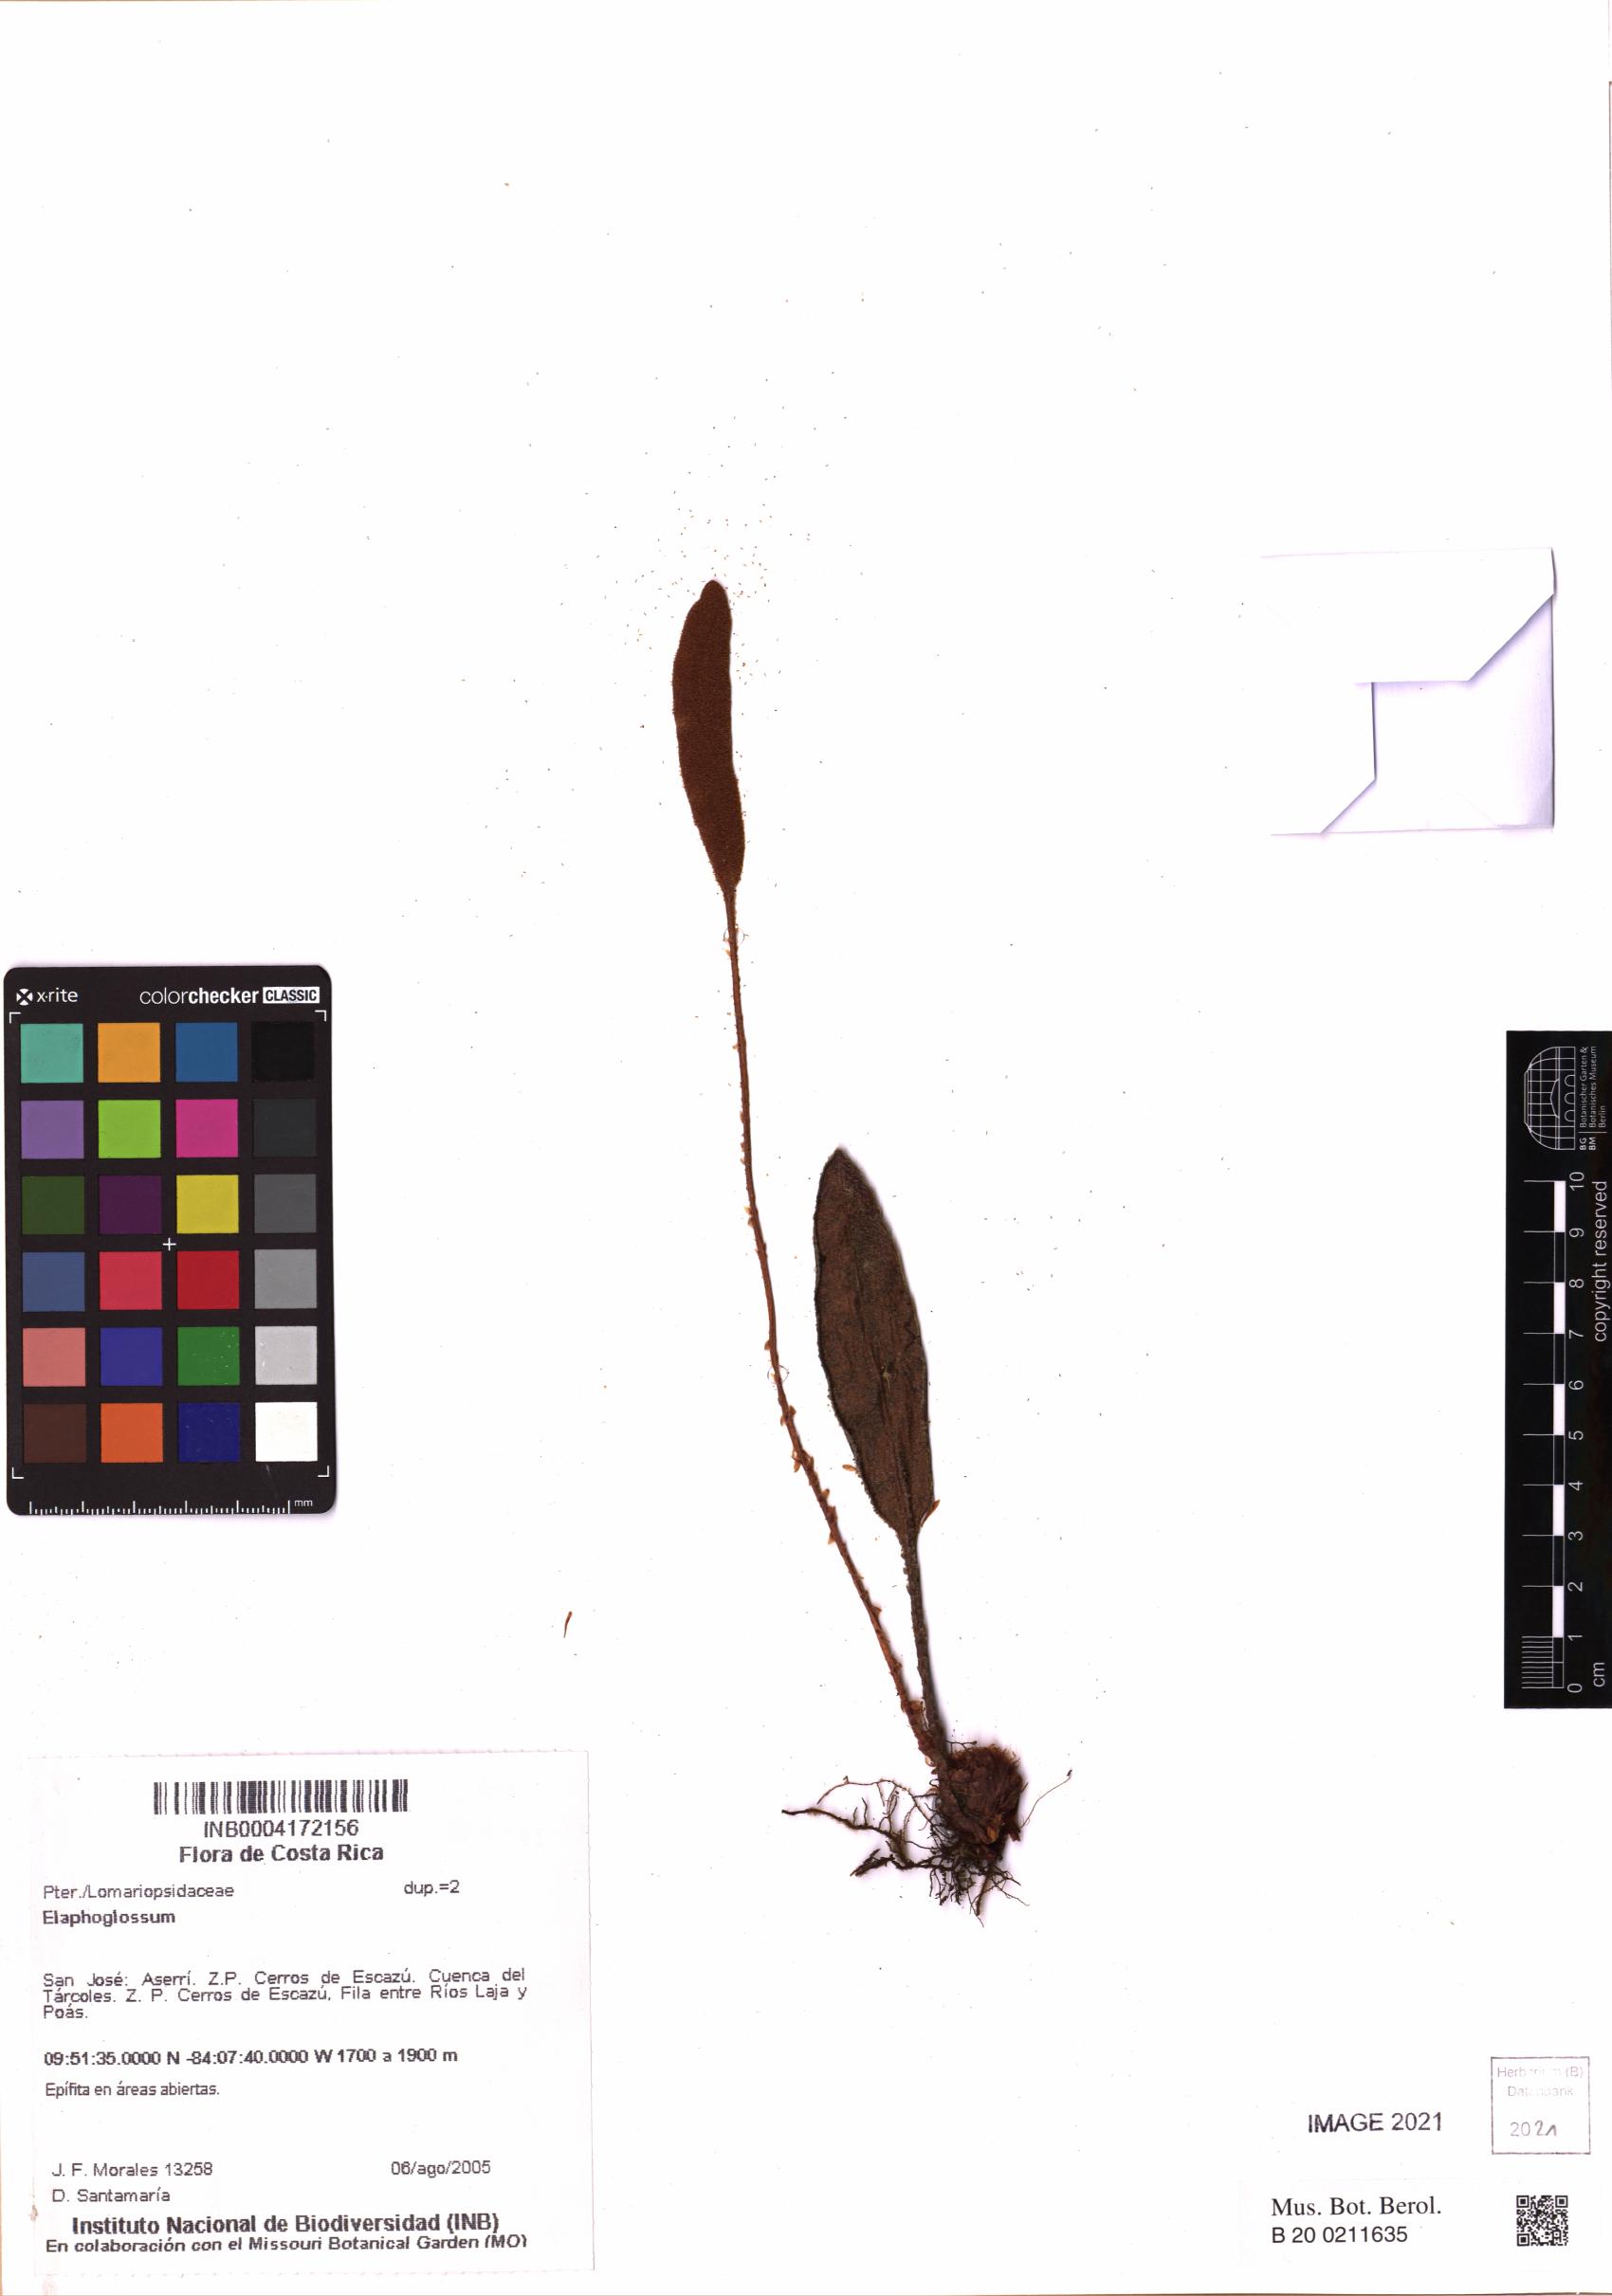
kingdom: Plantae
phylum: Tracheophyta
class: Polypodiopsida
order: Polypodiales
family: Dryopteridaceae
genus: Elaphoglossum
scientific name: Elaphoglossum
